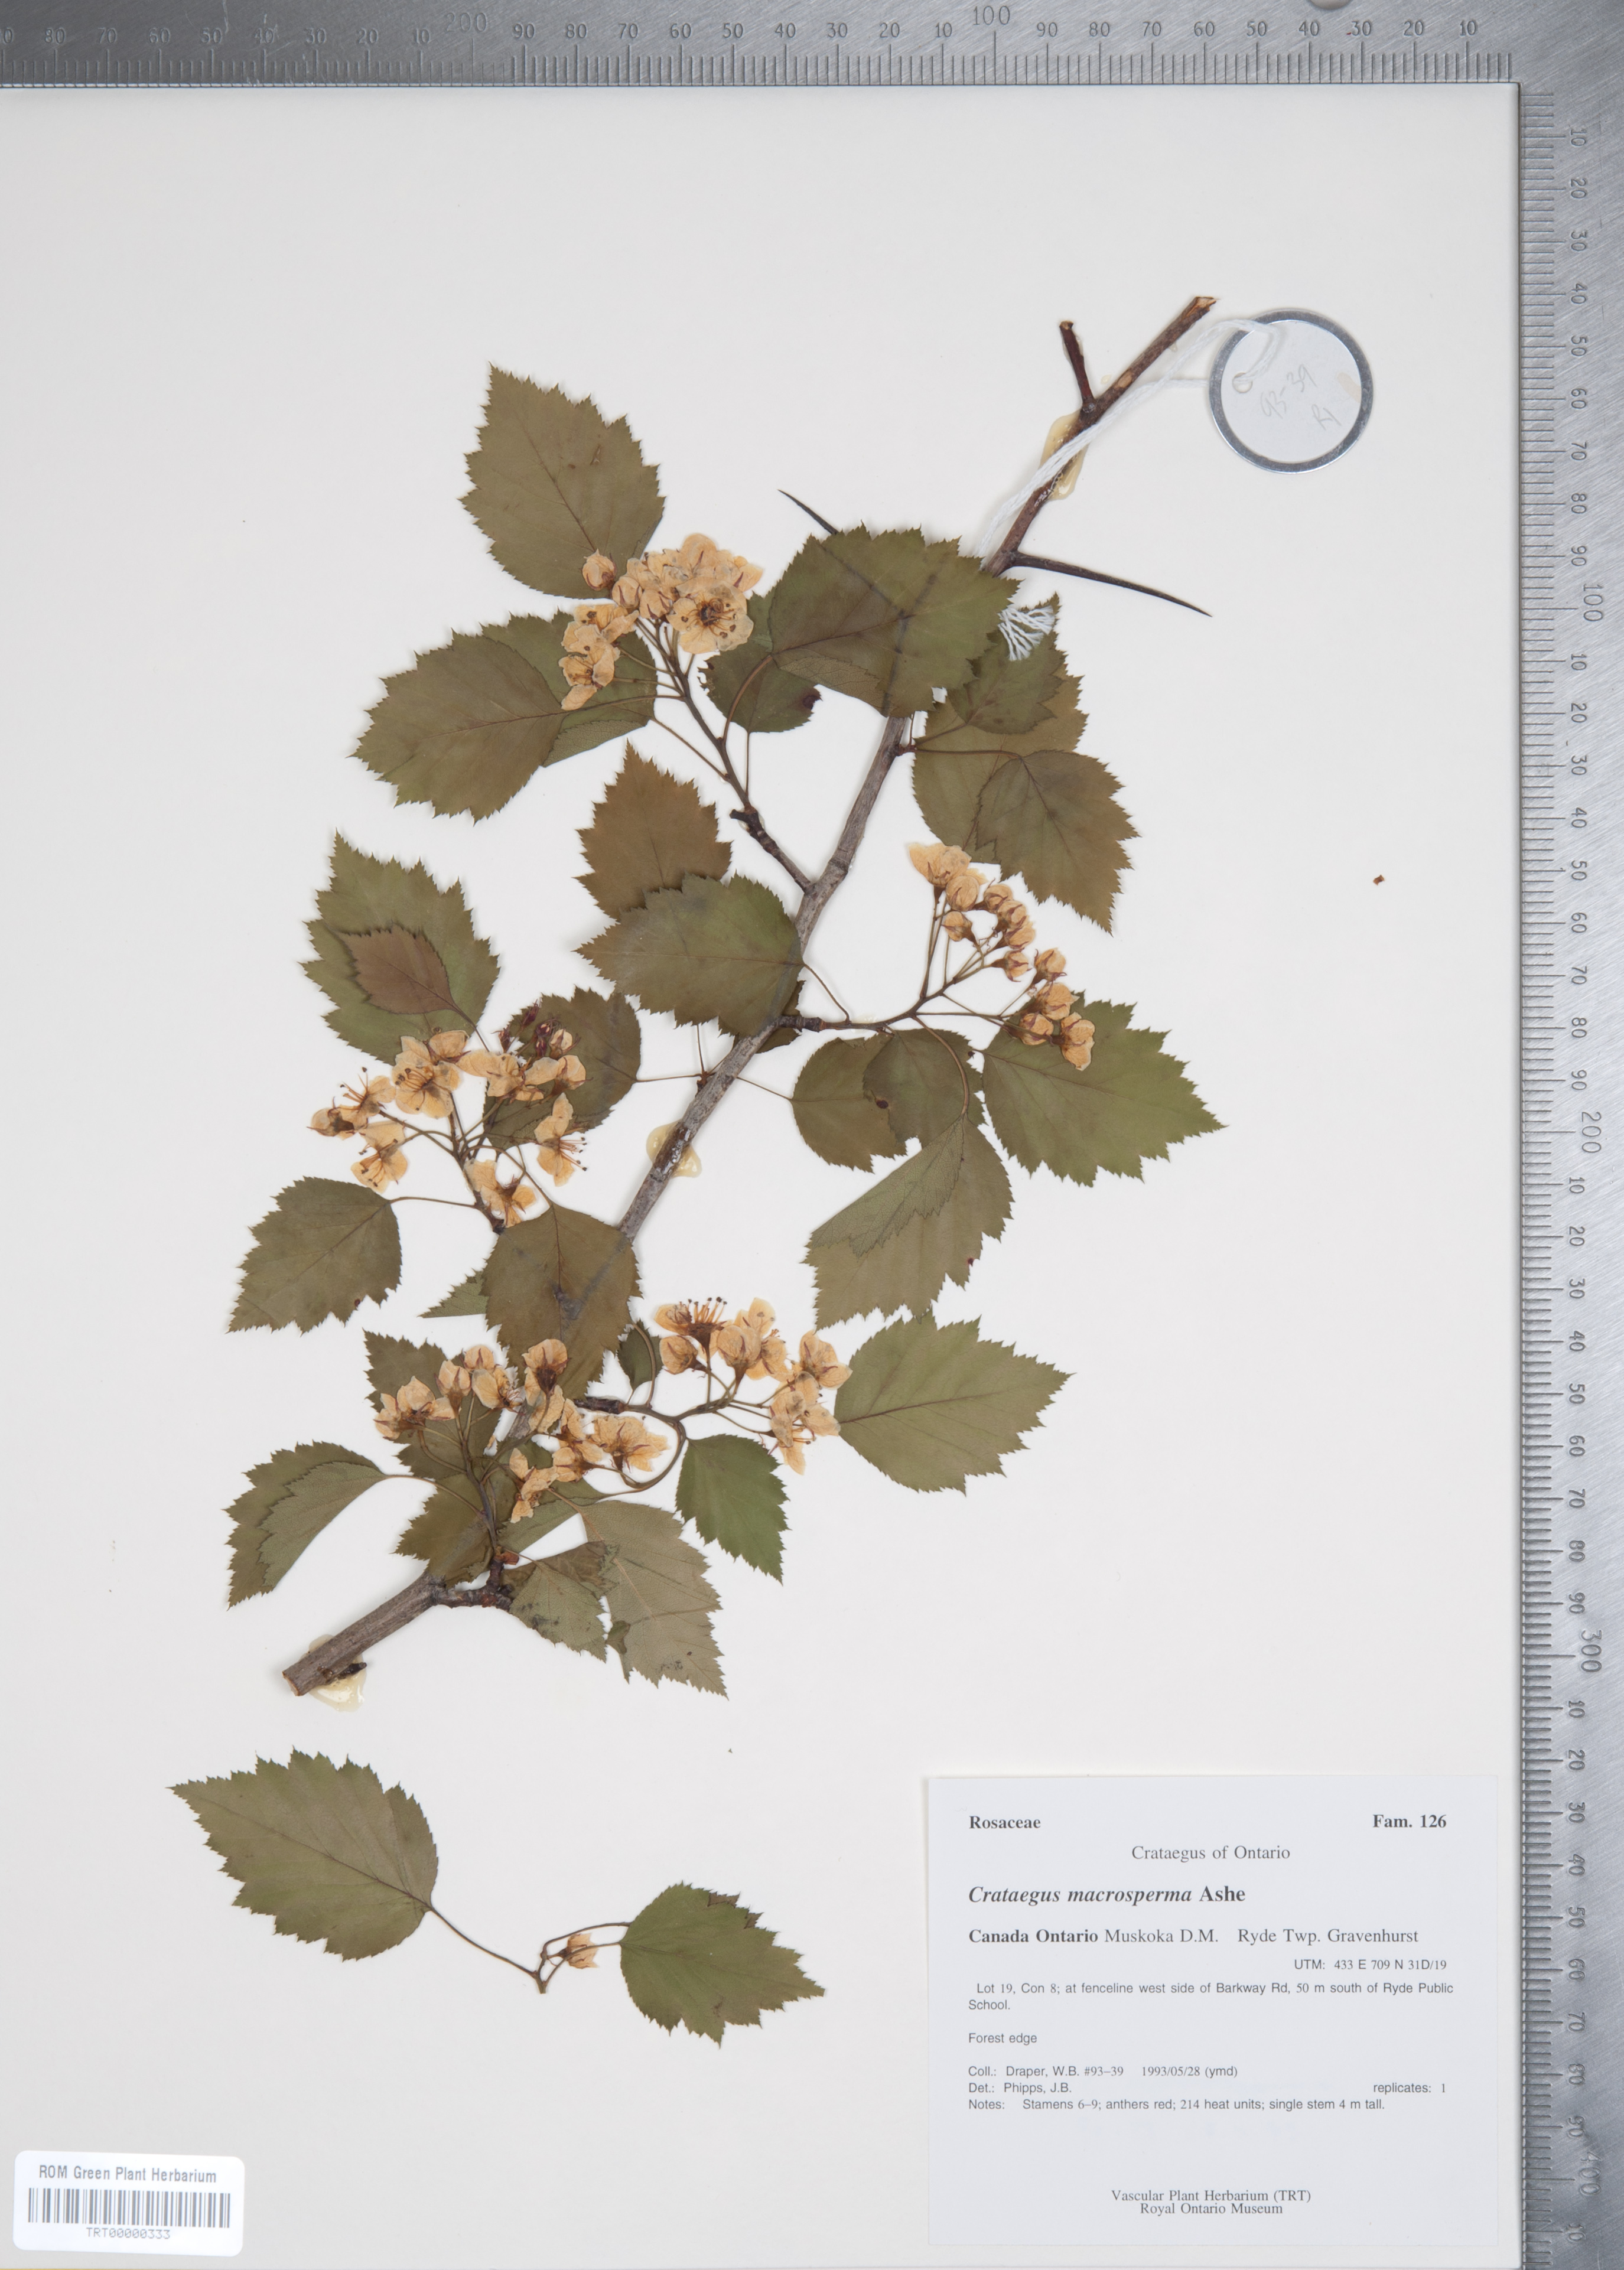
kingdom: Plantae
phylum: Tracheophyta
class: Magnoliopsida
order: Rosales
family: Rosaceae
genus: Crataegus
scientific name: Crataegus macrosperma
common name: Variable hawthorn
